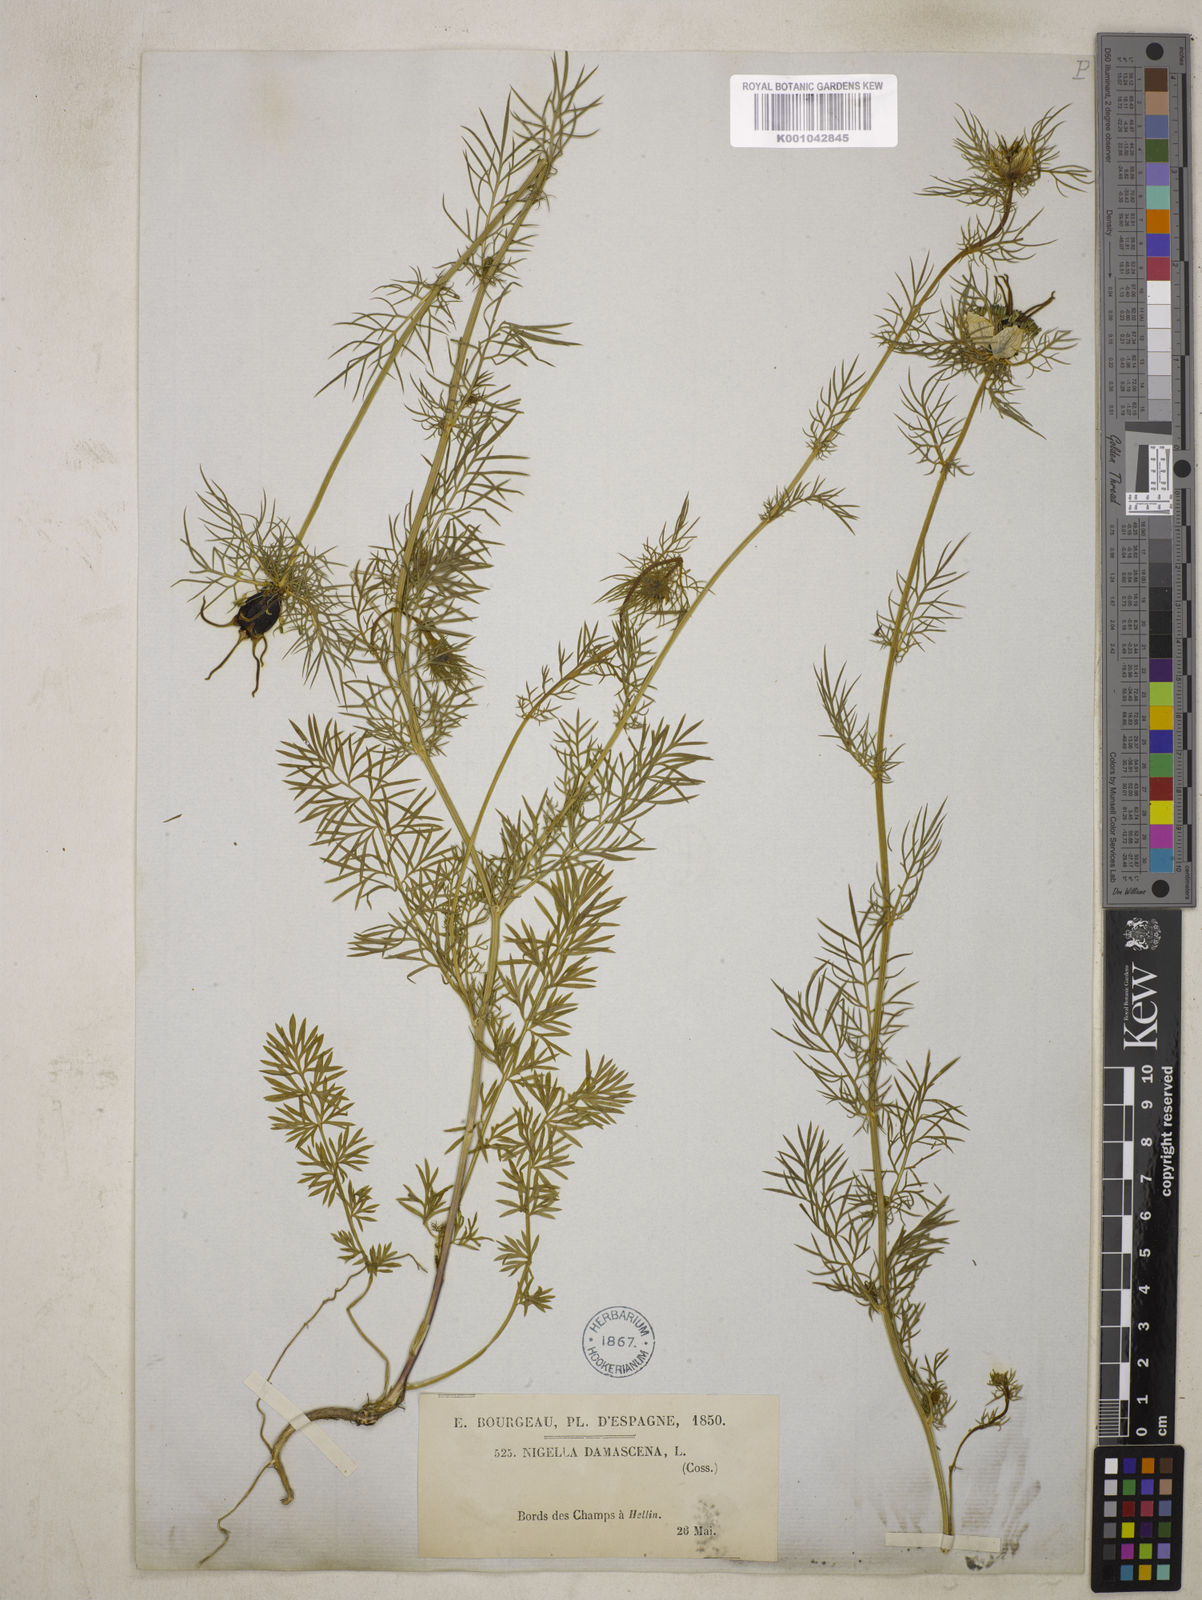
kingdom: Plantae
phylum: Tracheophyta
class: Magnoliopsida
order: Ranunculales
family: Ranunculaceae
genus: Nigella
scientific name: Nigella damascena
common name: Love-in-a-mist
